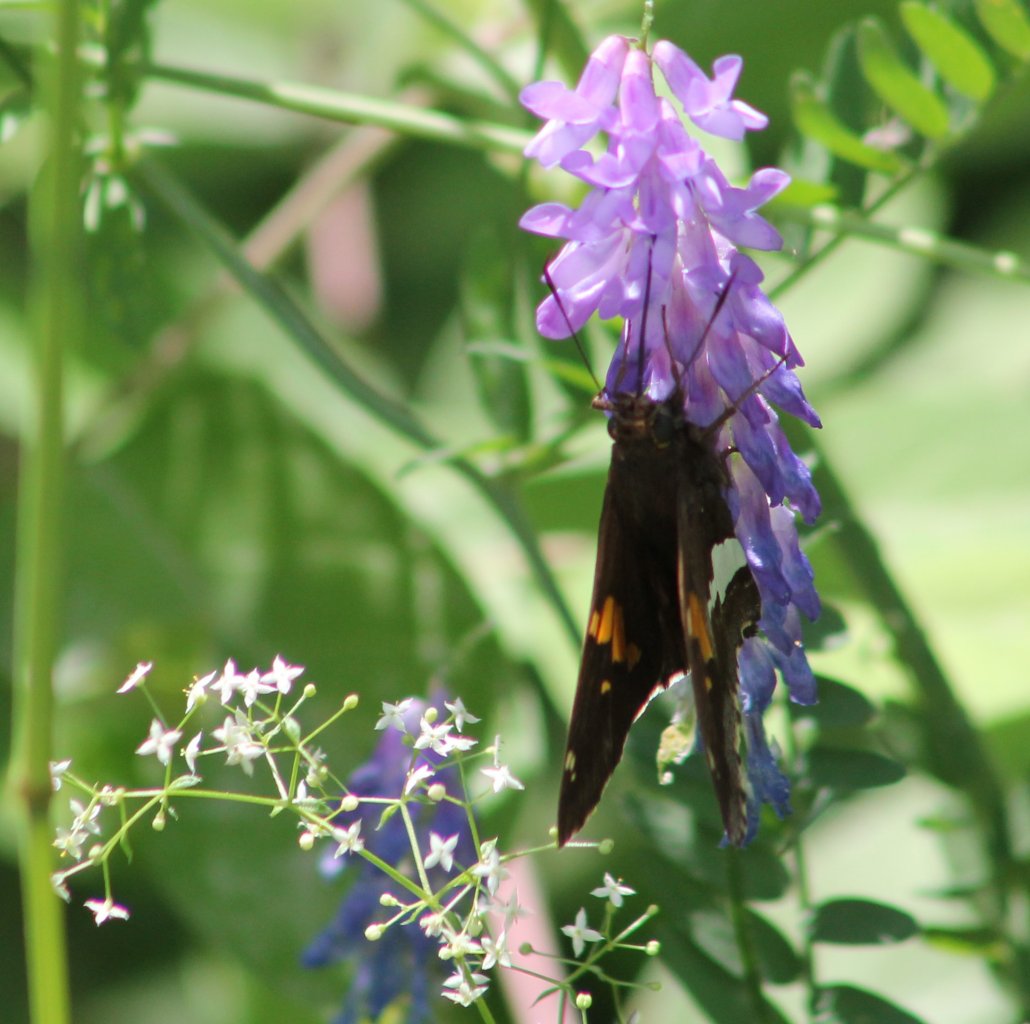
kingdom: Animalia
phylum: Arthropoda
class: Insecta
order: Lepidoptera
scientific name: Lepidoptera
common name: Butterflies
